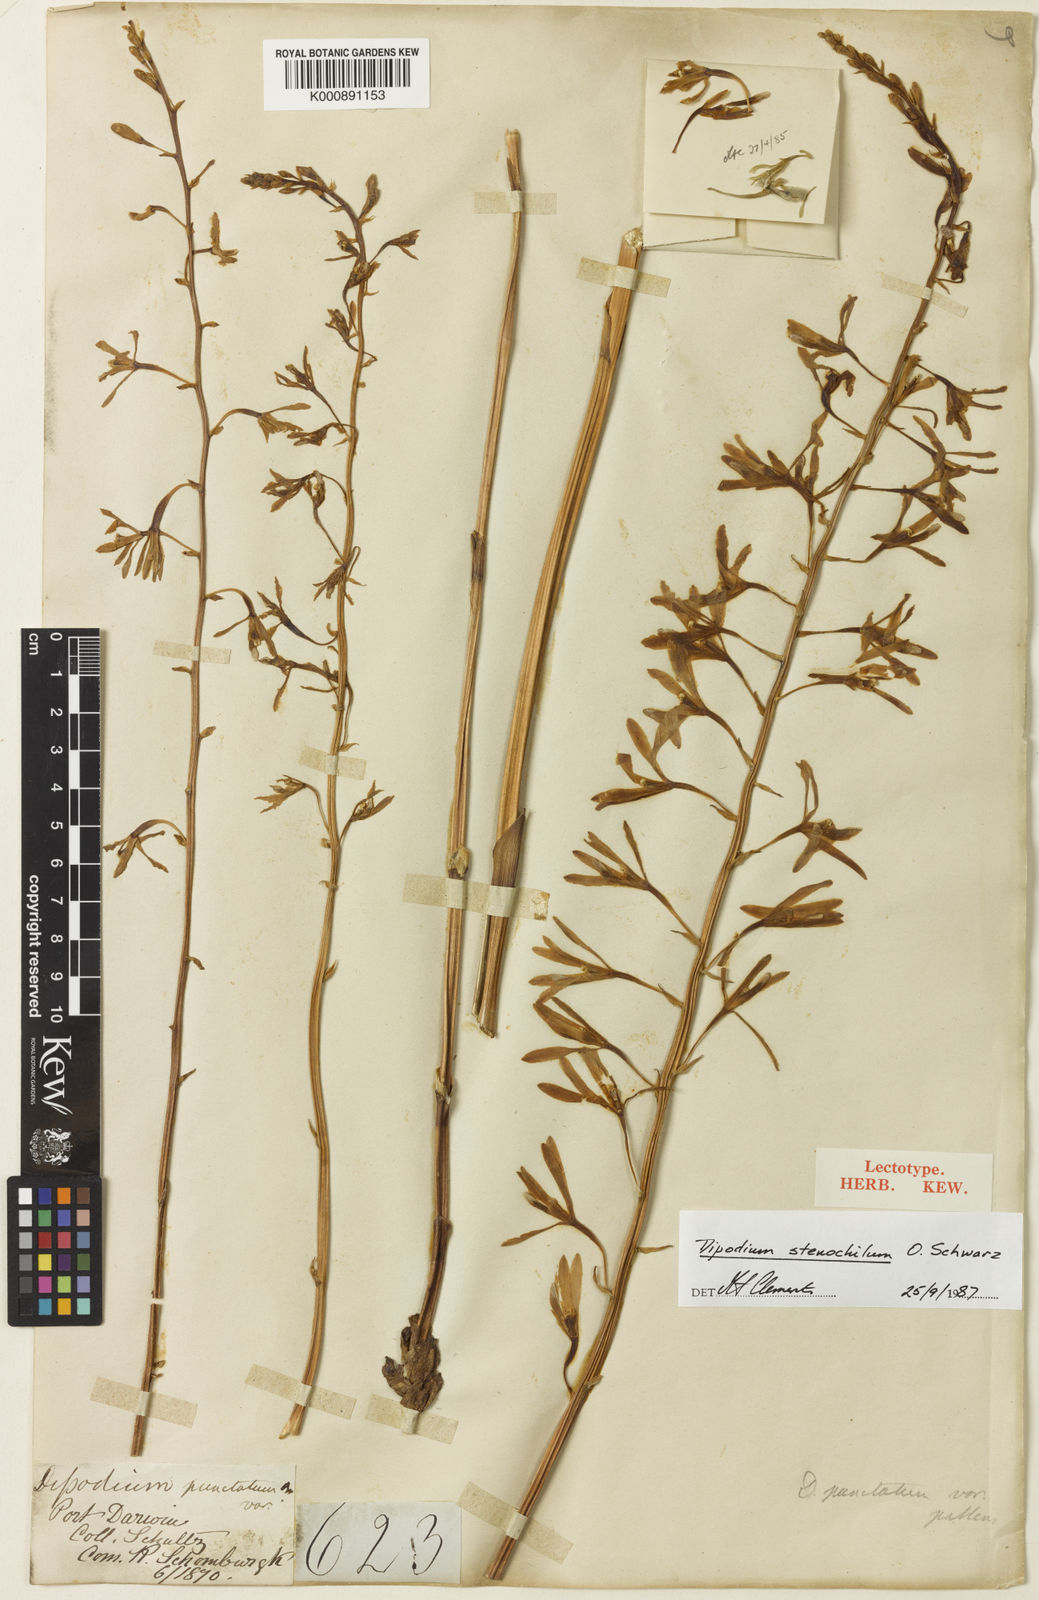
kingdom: Plantae
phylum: Tracheophyta
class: Liliopsida
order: Asparagales
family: Orchidaceae
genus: Dipodium
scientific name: Dipodium stenocheilum
